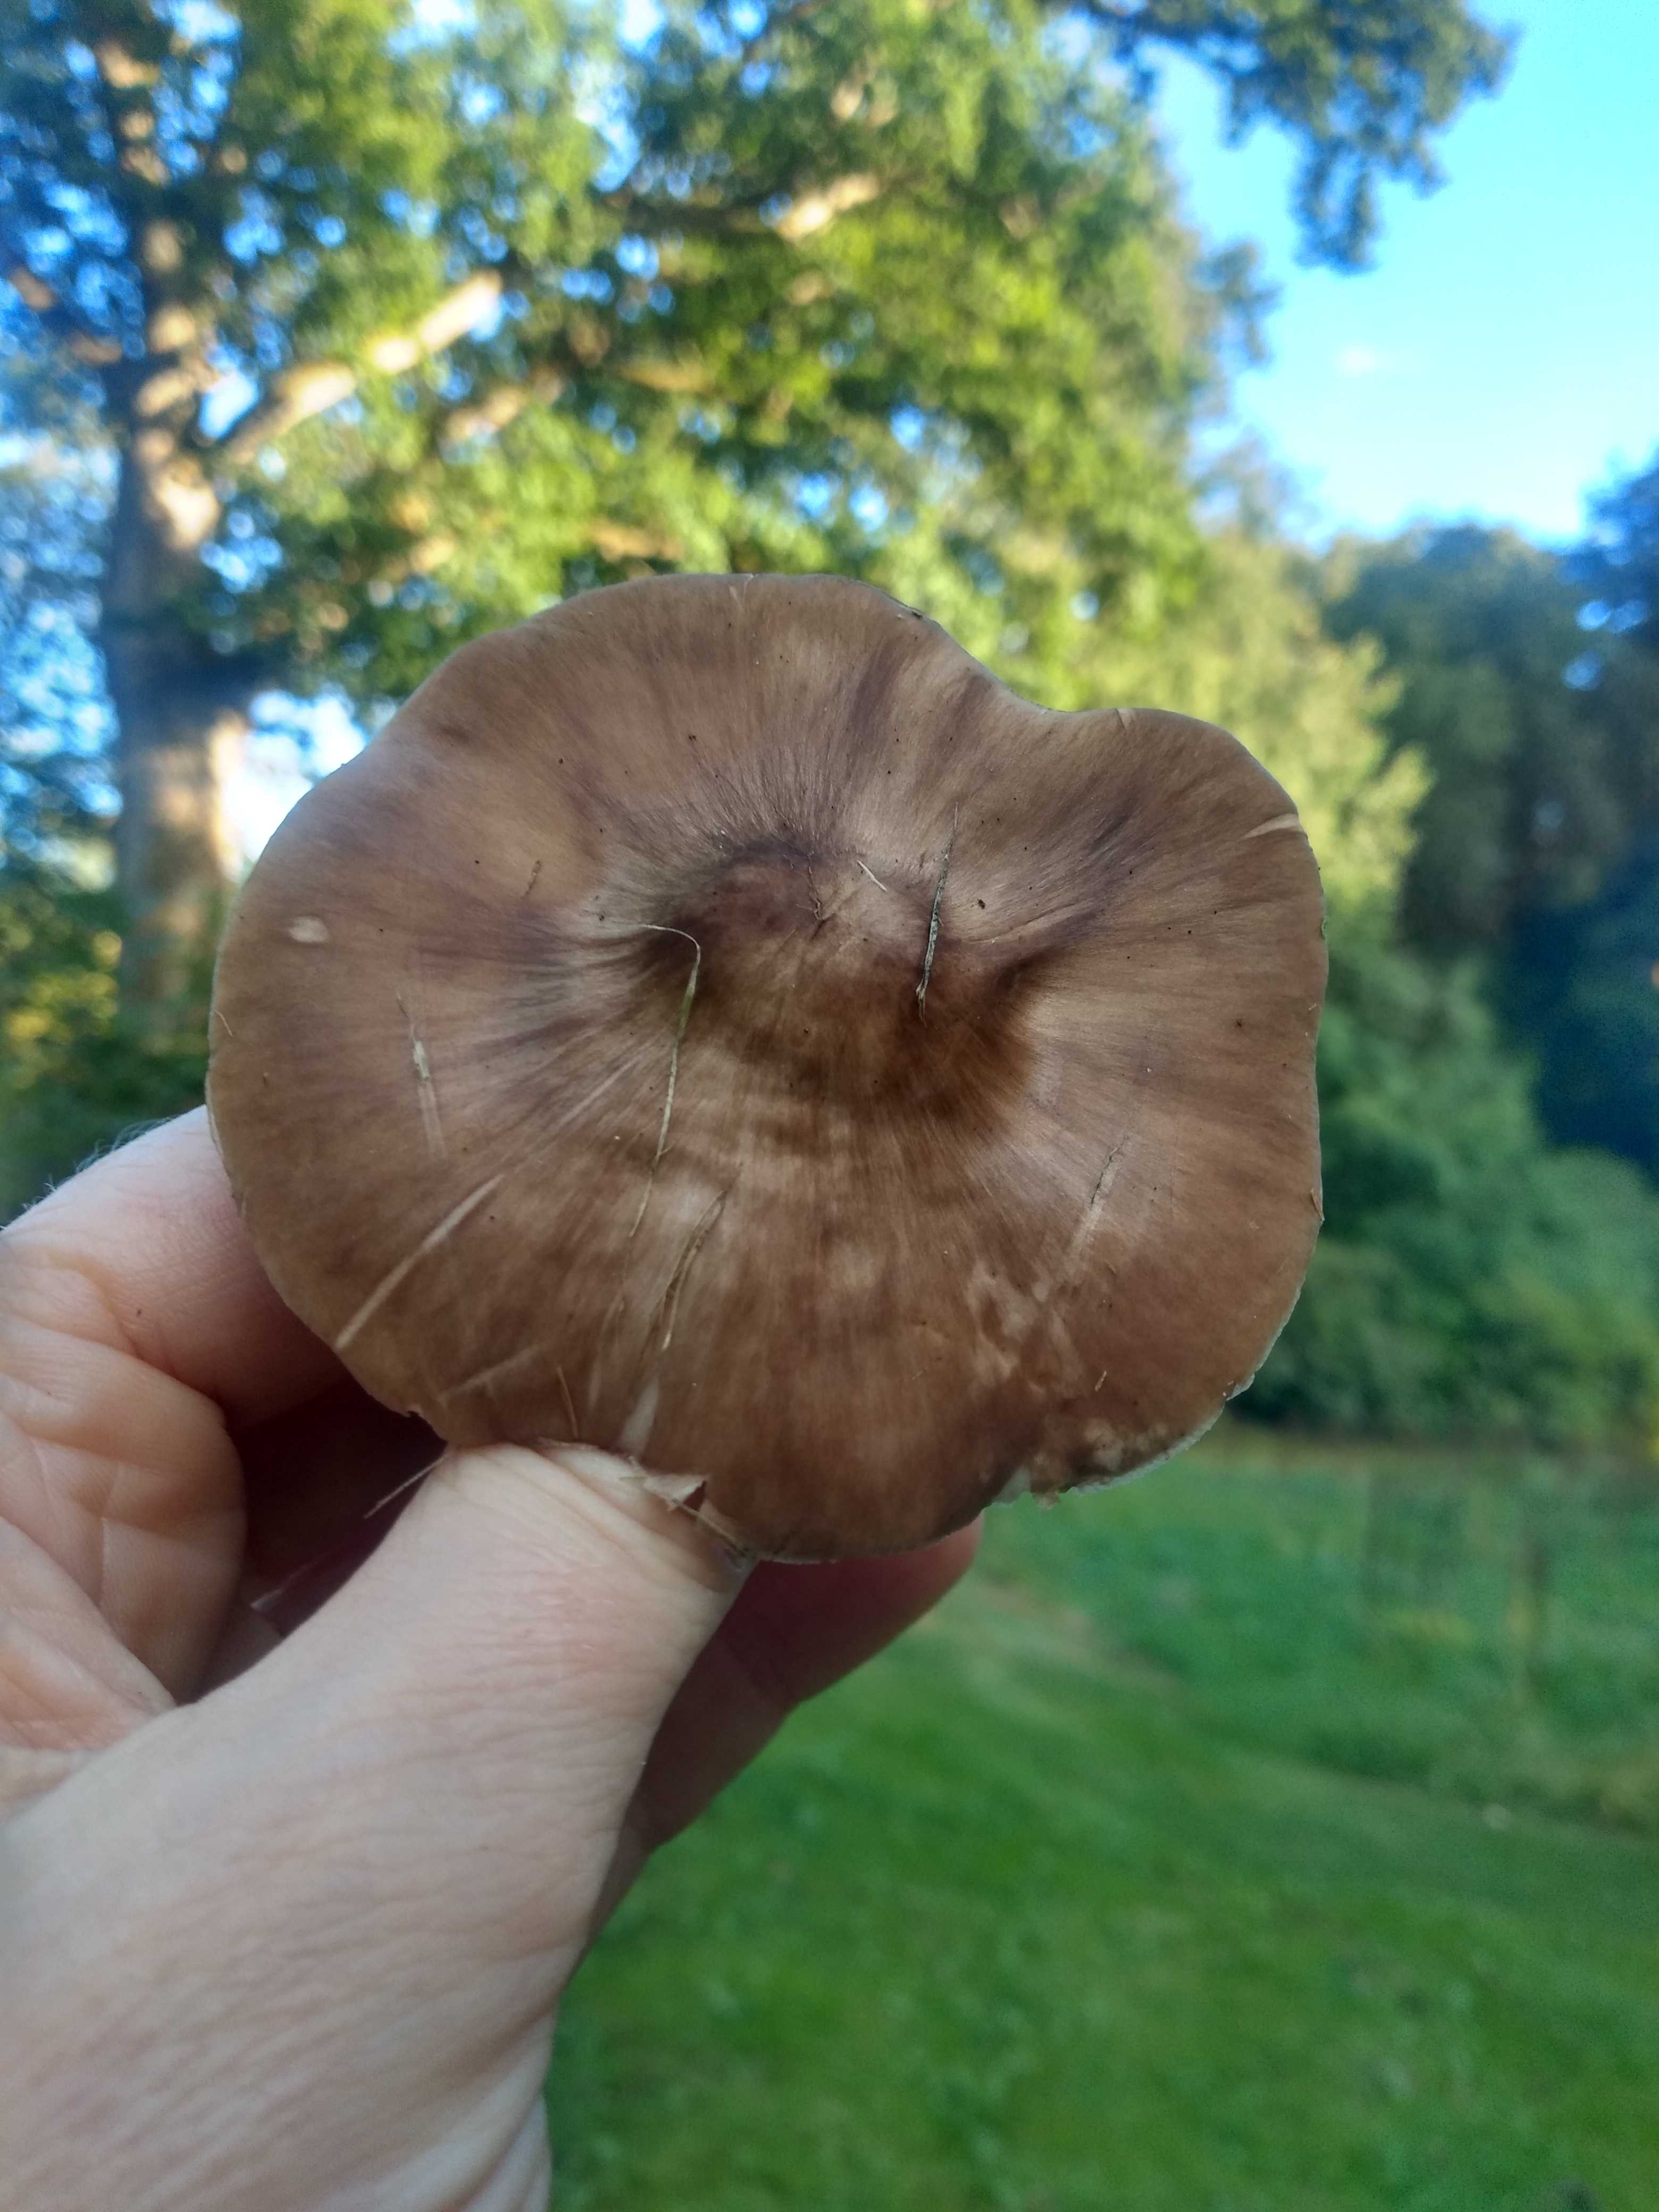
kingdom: Fungi
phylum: Basidiomycota
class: Agaricomycetes
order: Agaricales
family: Pluteaceae
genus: Pluteus
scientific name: Pluteus cervinus
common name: sodfarvet skærmhat
